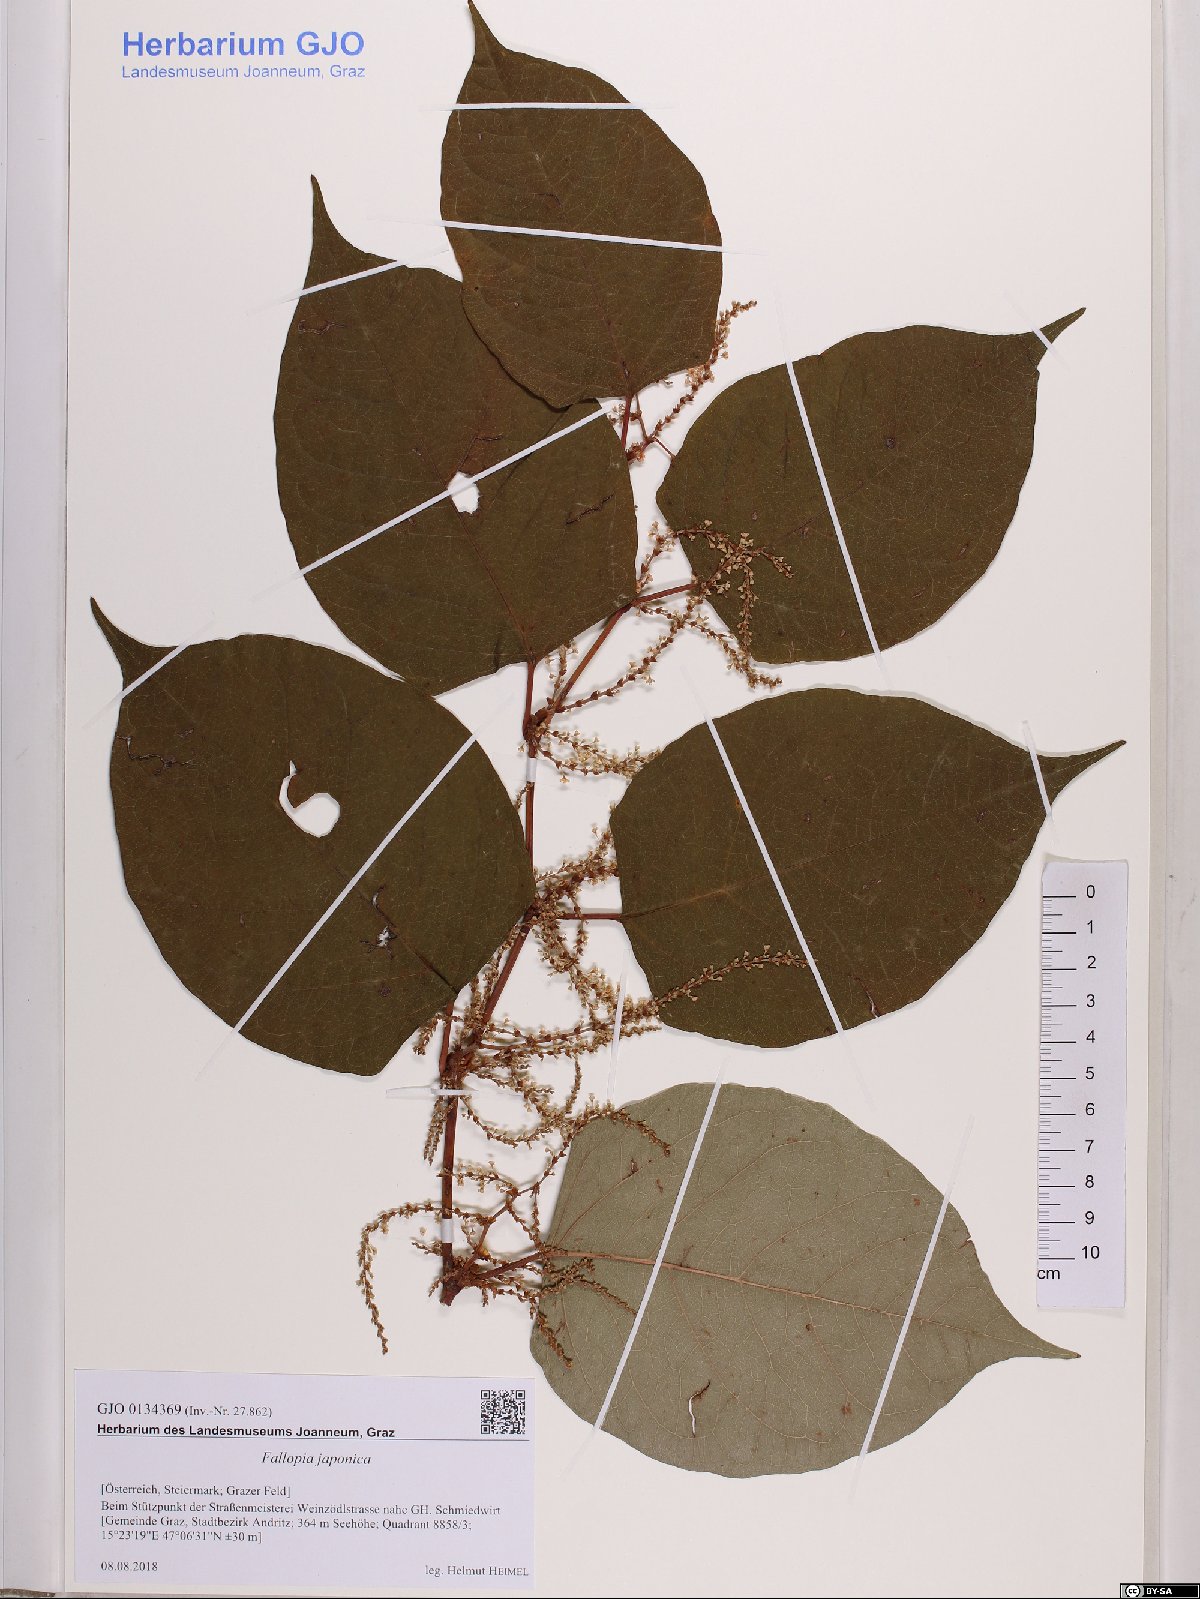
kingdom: Plantae
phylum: Tracheophyta
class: Magnoliopsida
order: Caryophyllales
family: Polygonaceae
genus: Reynoutria
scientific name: Reynoutria japonica
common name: Japanese knotweed
